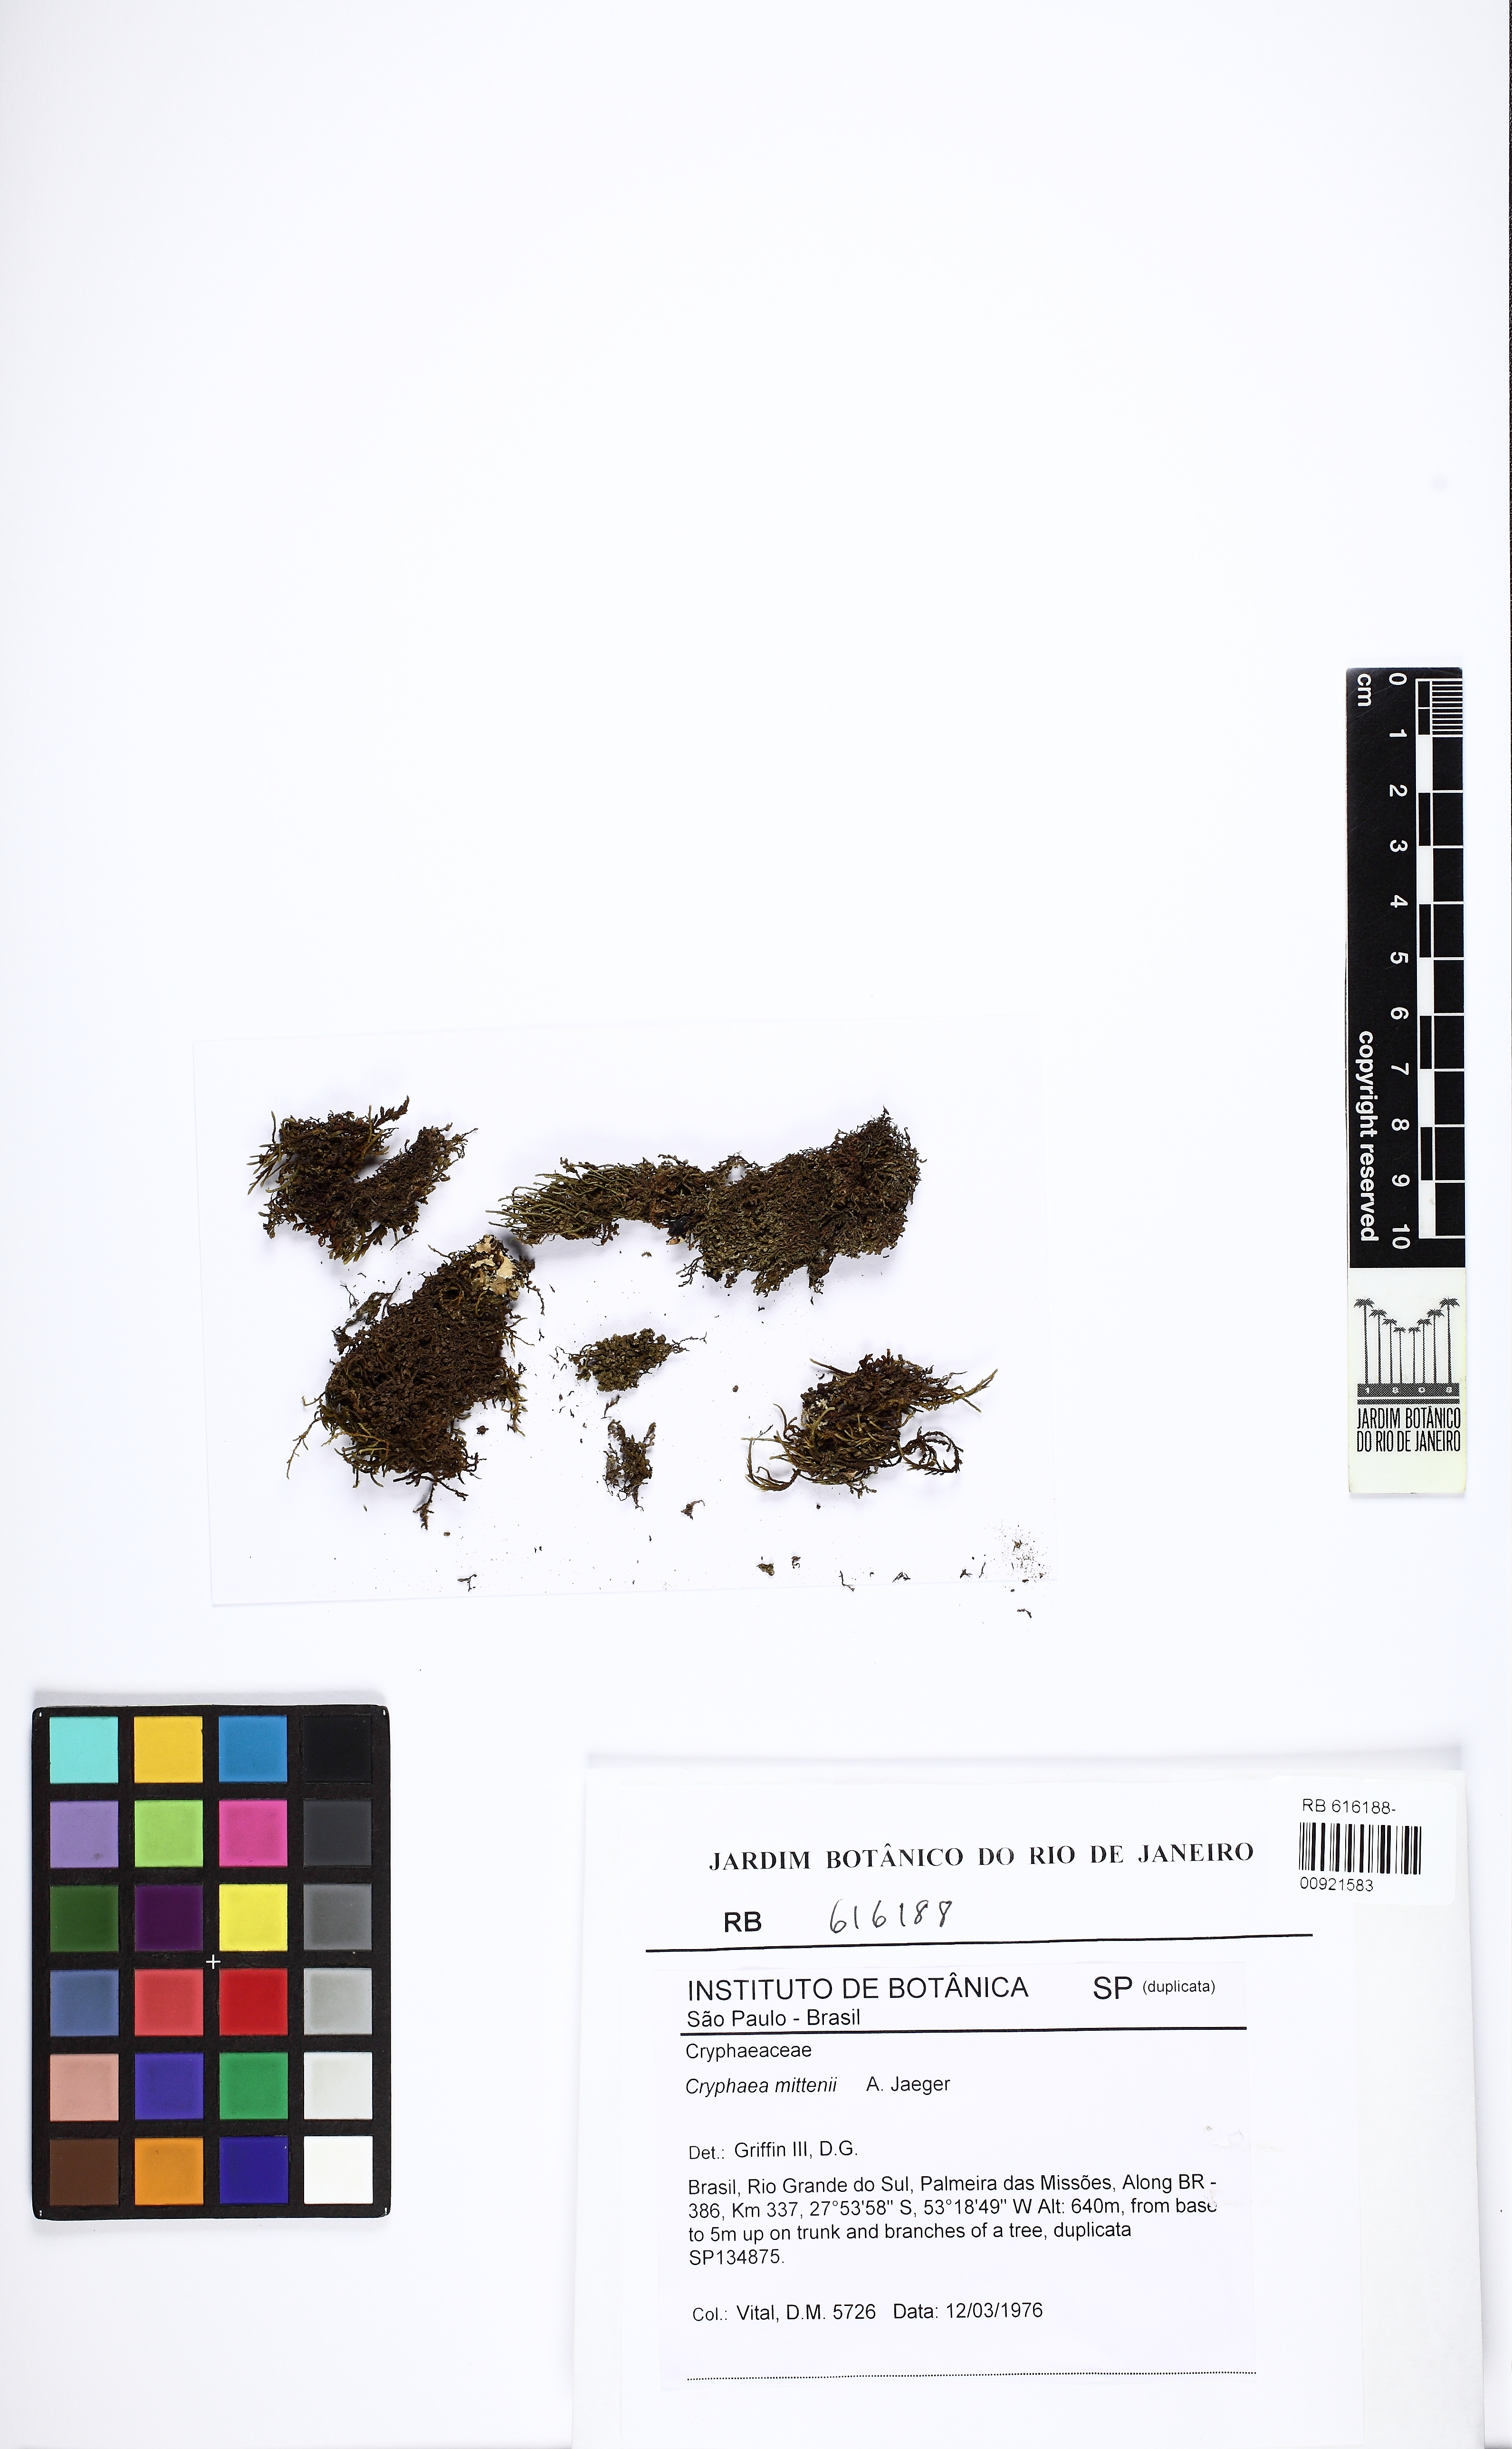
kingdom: Plantae
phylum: Bryophyta
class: Bryopsida
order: Hypnales
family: Cryphaeaceae
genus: Schoenobryum
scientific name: Schoenobryum rubricaule
